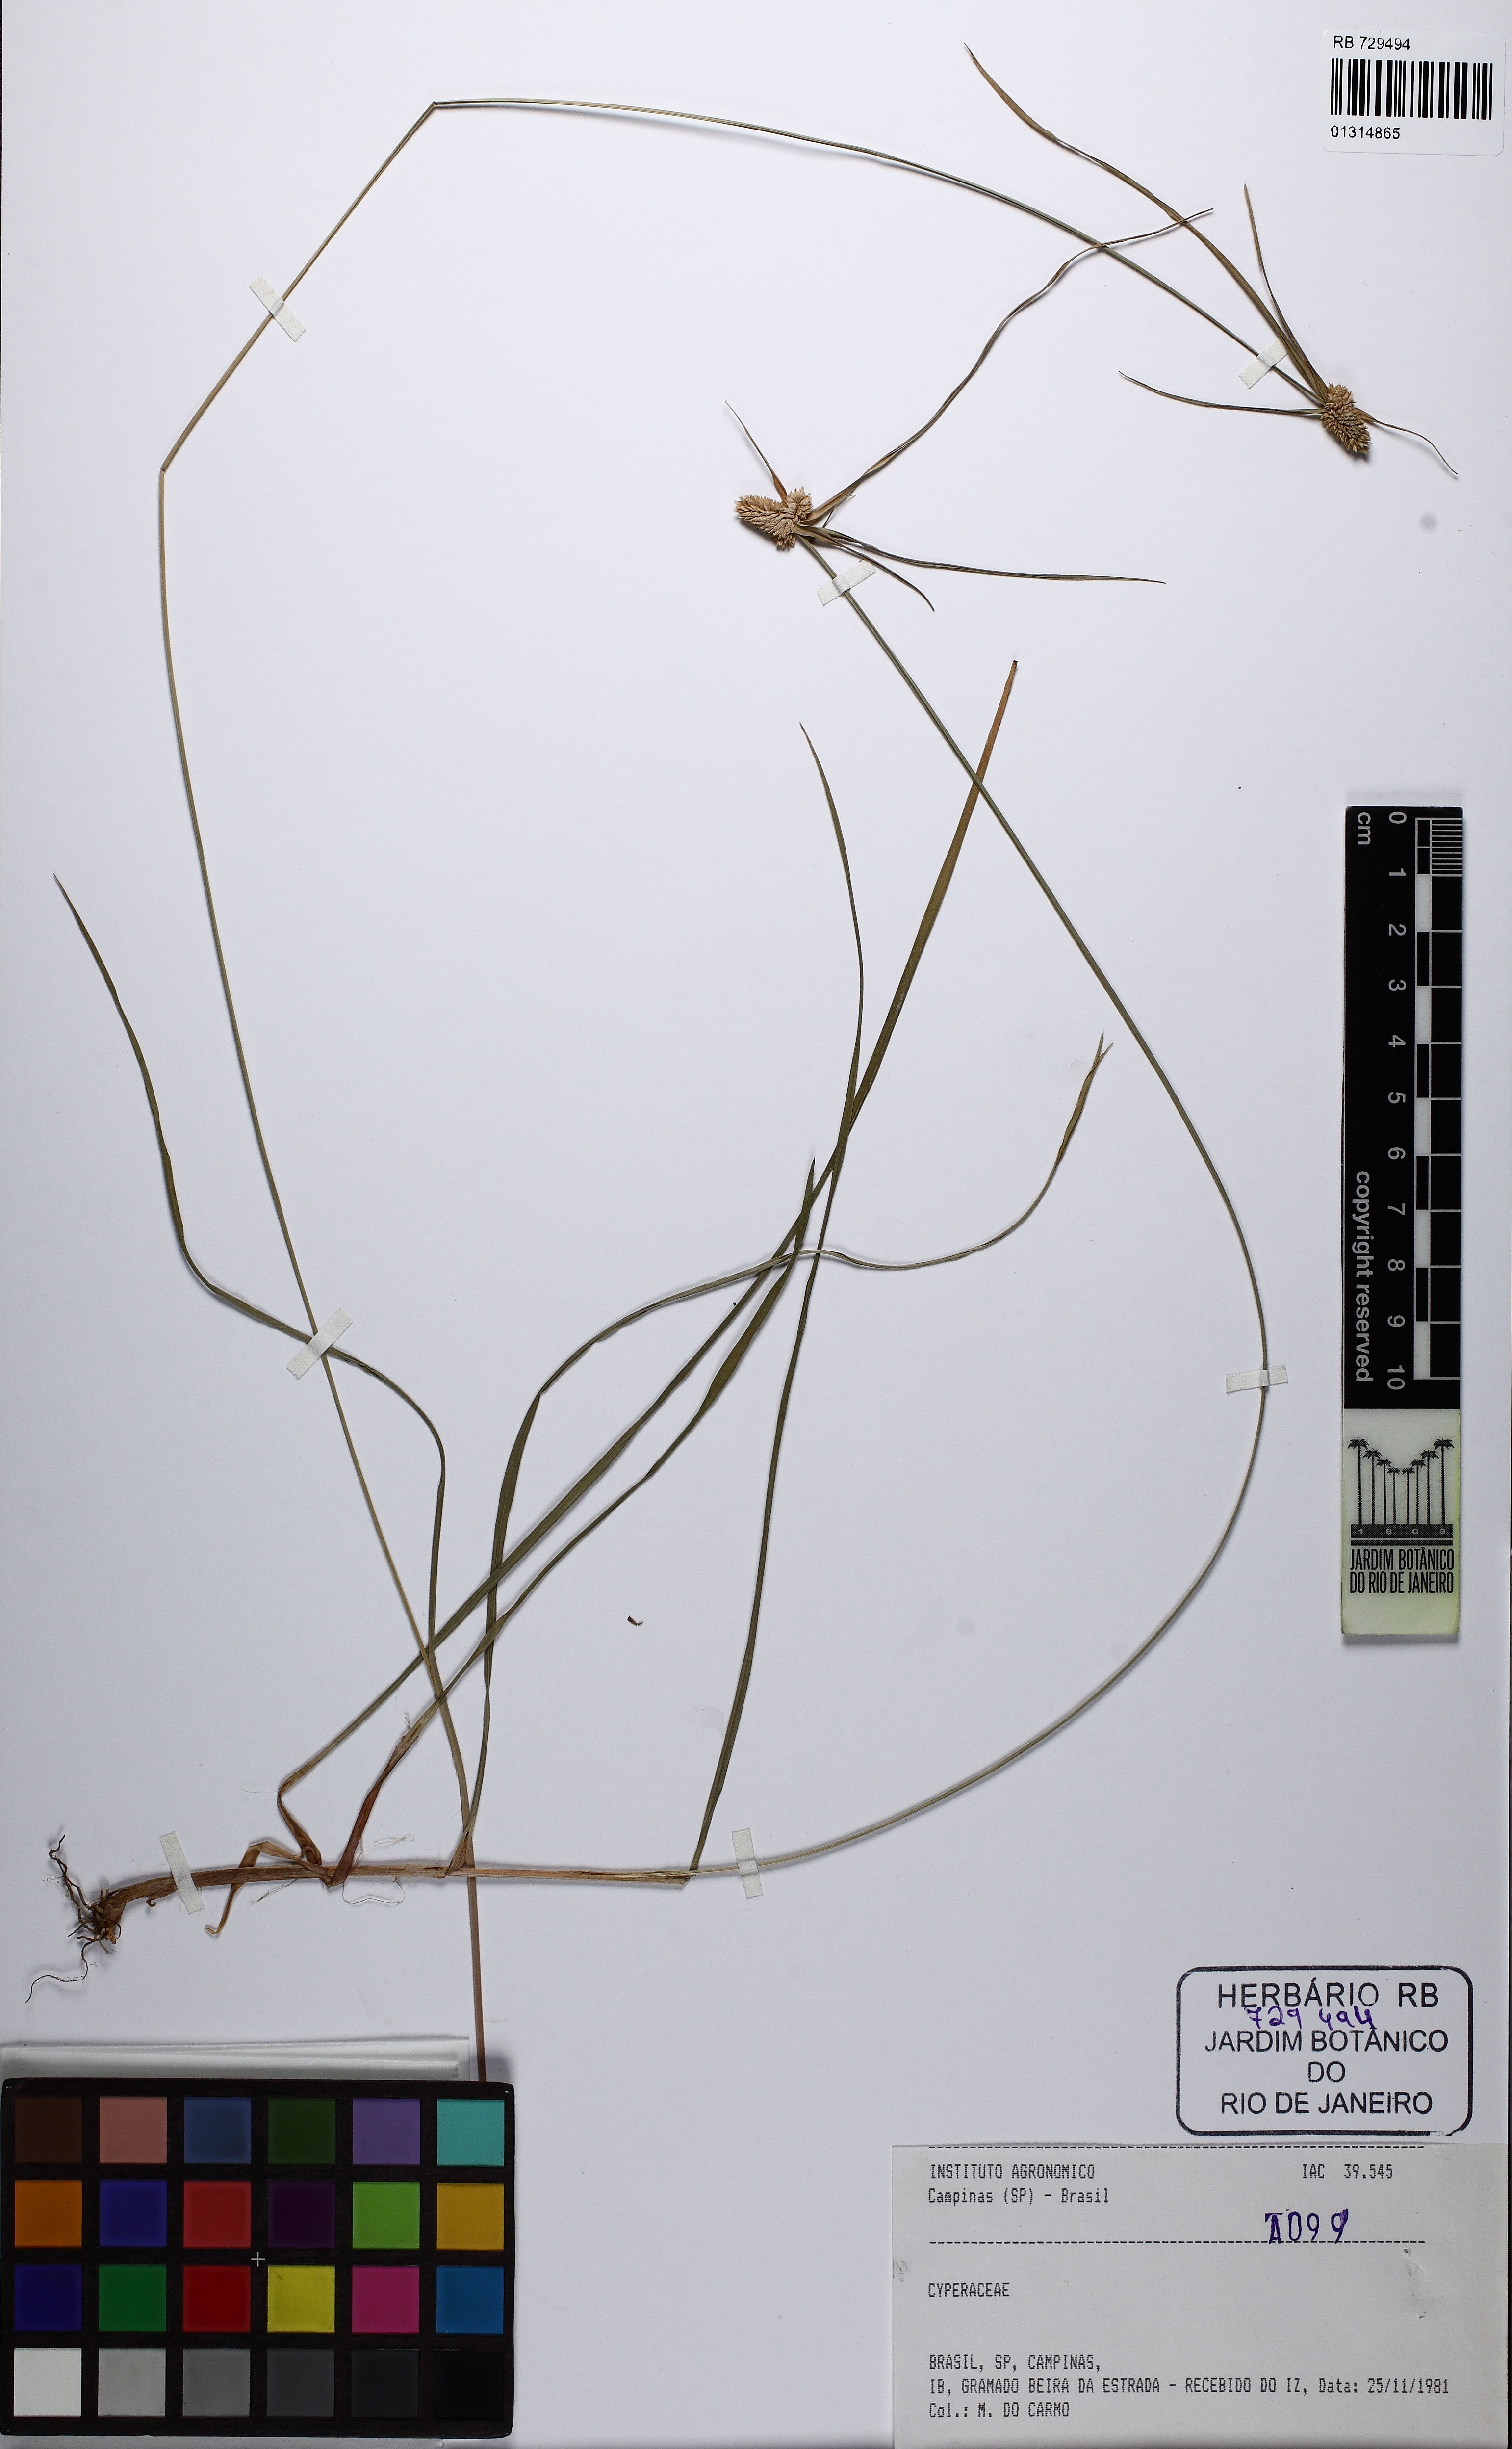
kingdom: Plantae
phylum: Tracheophyta
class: Liliopsida
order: Poales
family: Cyperaceae
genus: Rhynchospora
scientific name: Rhynchospora cephalotes
